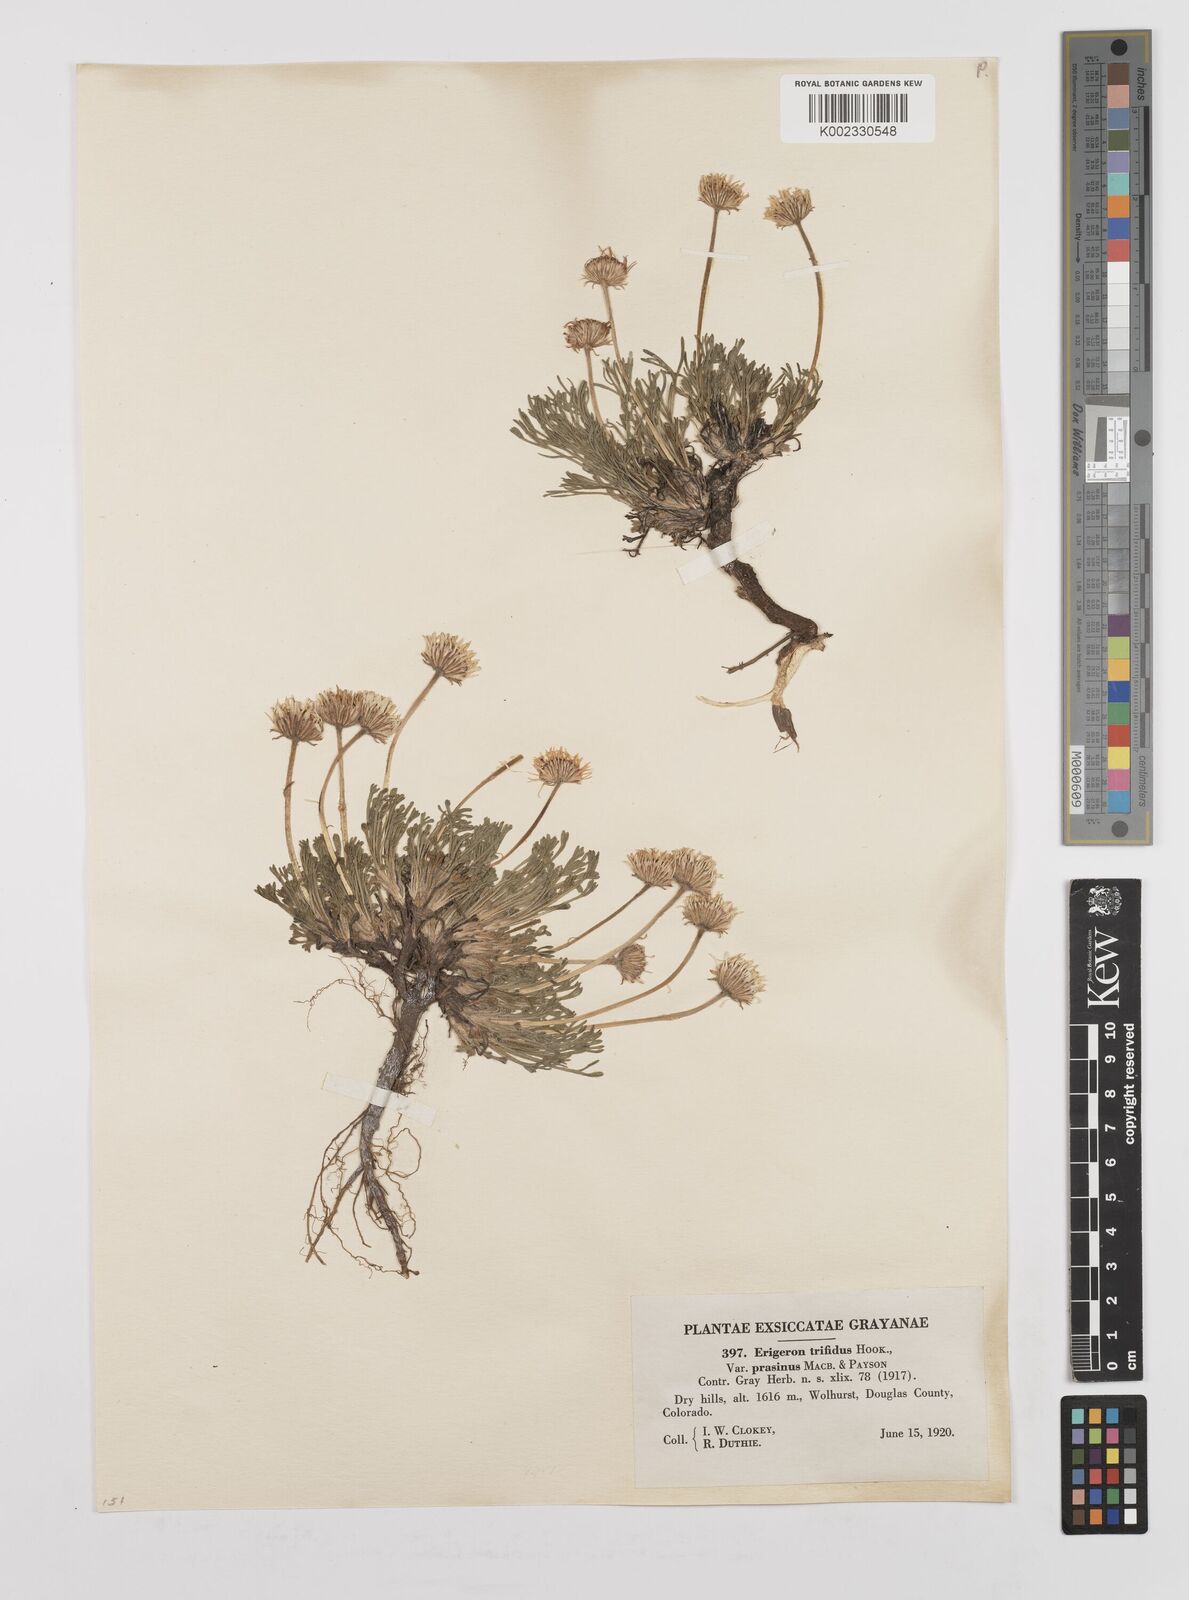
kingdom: Plantae
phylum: Tracheophyta
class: Magnoliopsida
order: Asterales
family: Asteraceae
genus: Erigeron
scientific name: Erigeron compositus
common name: Dwarf mountain fleabane
